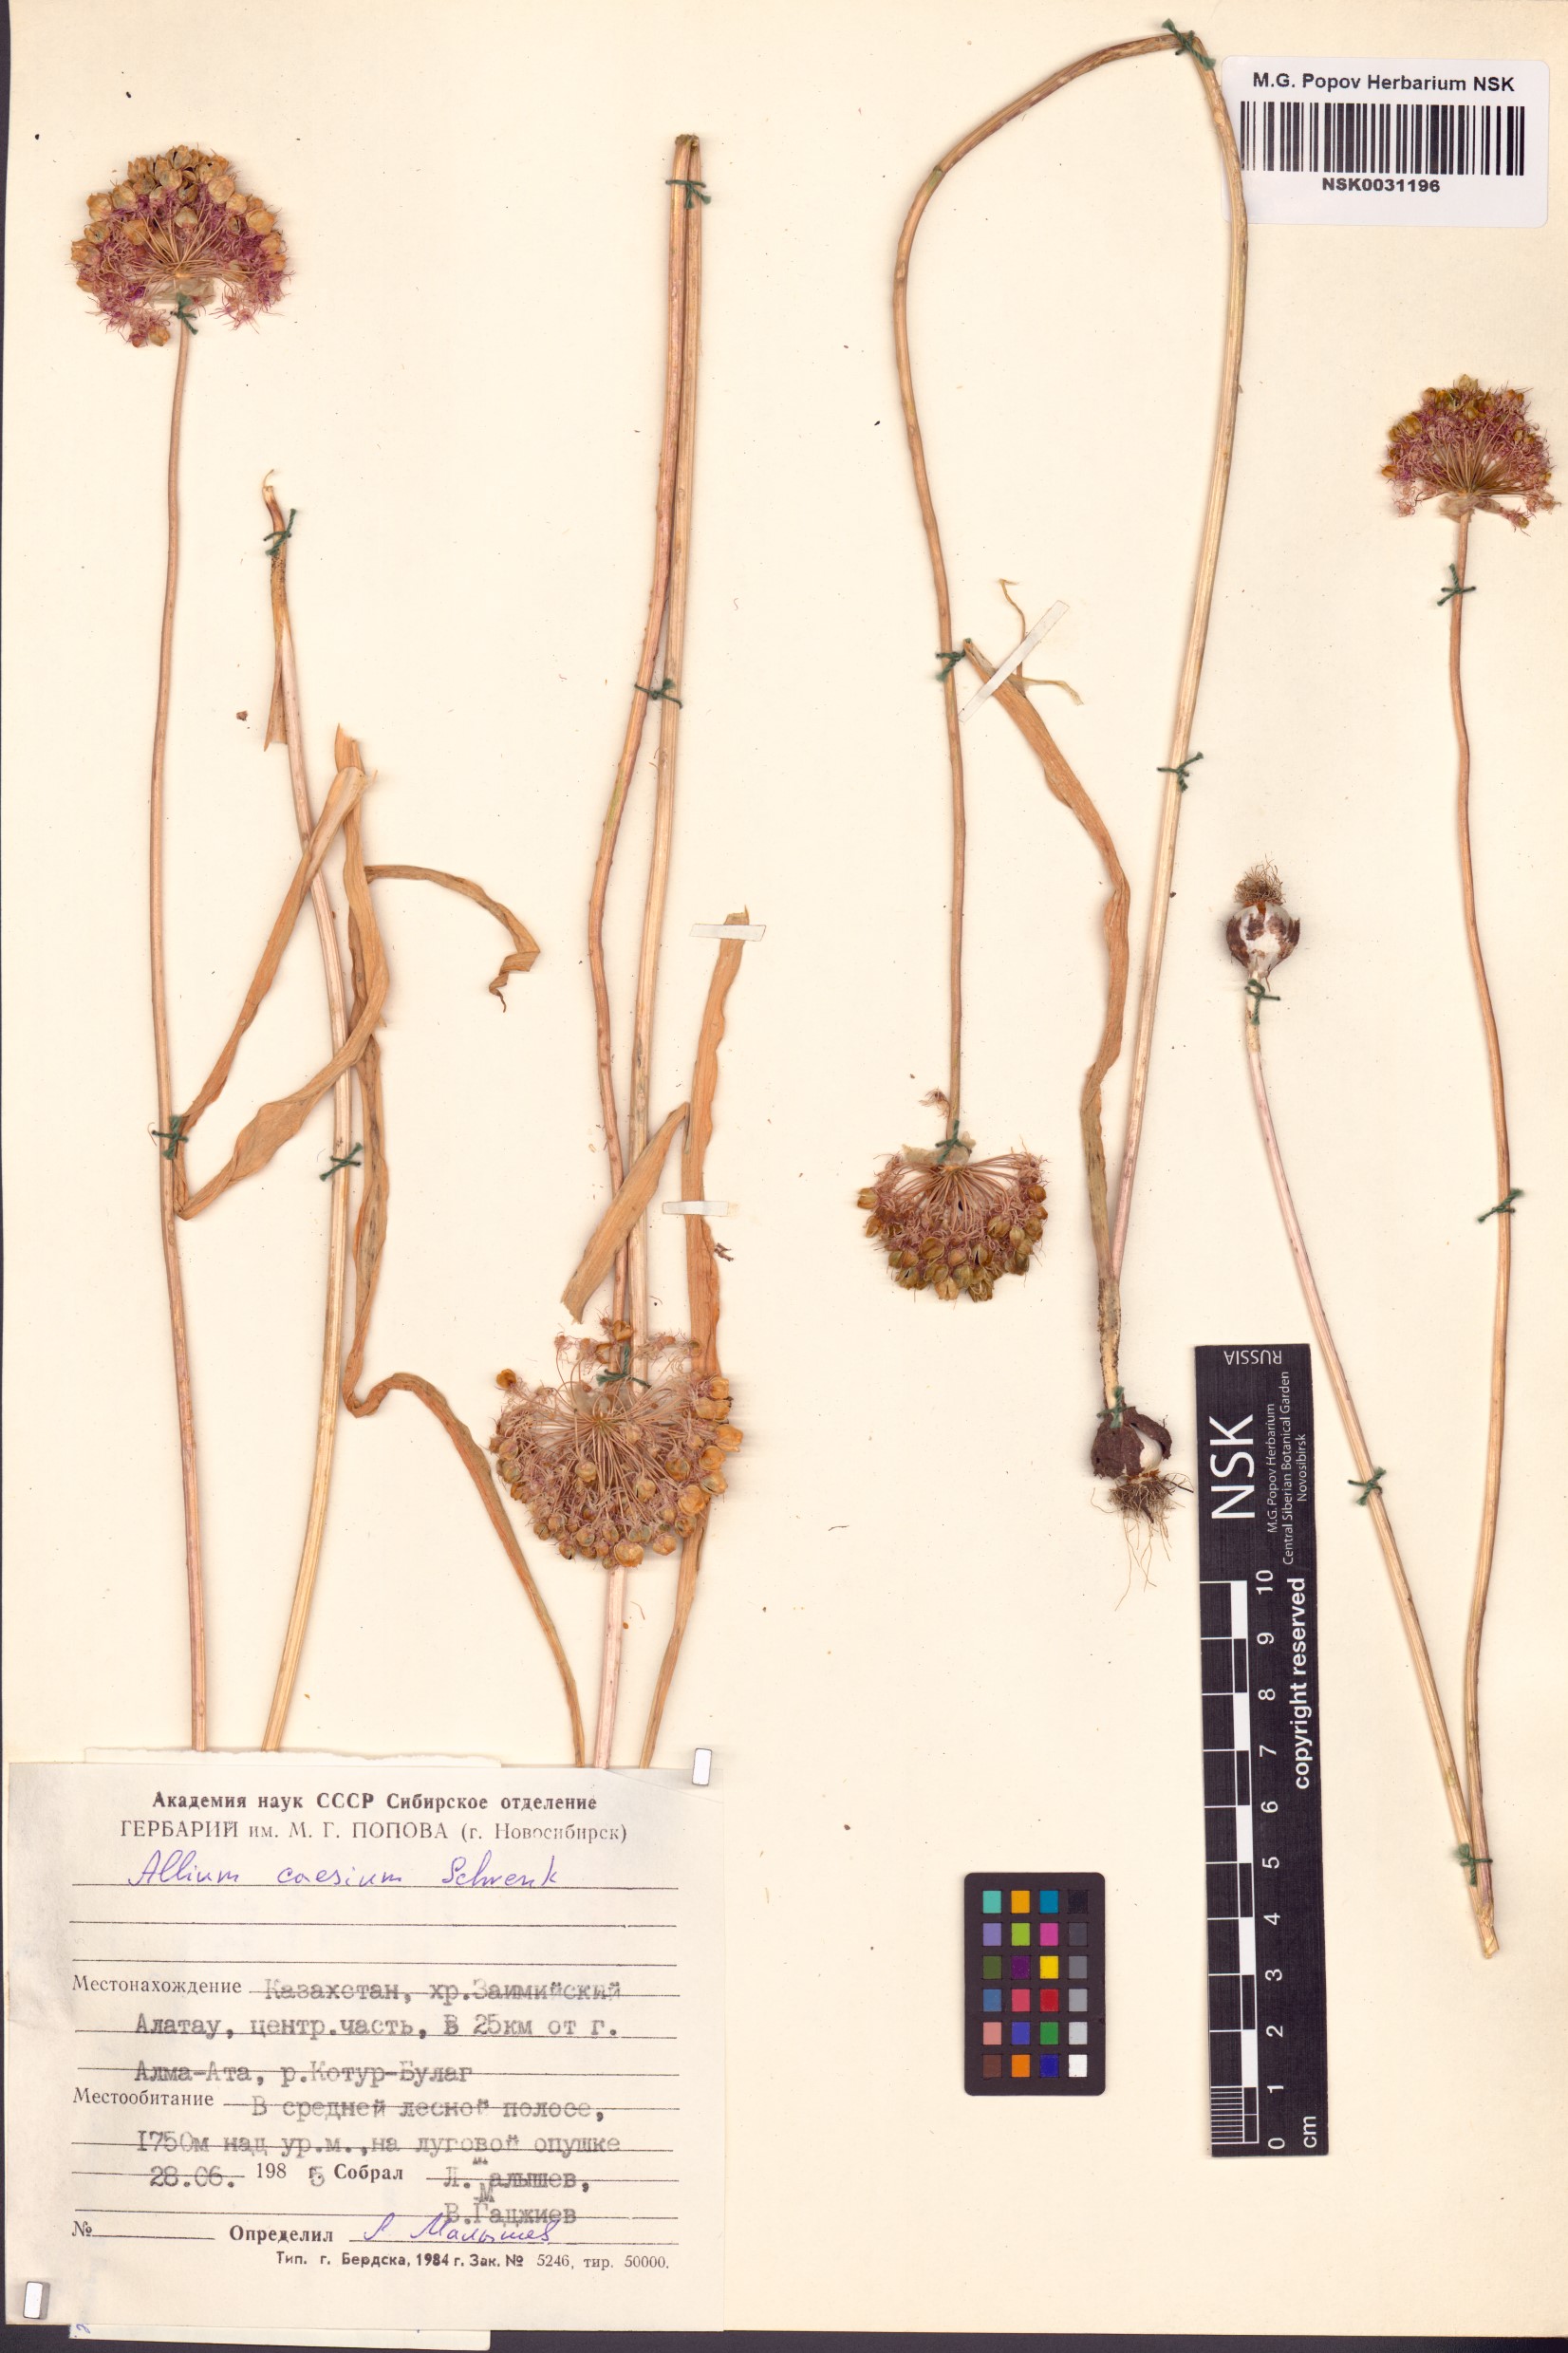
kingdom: Plantae
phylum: Tracheophyta
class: Liliopsida
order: Asparagales
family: Amaryllidaceae
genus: Allium
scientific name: Allium caesium
